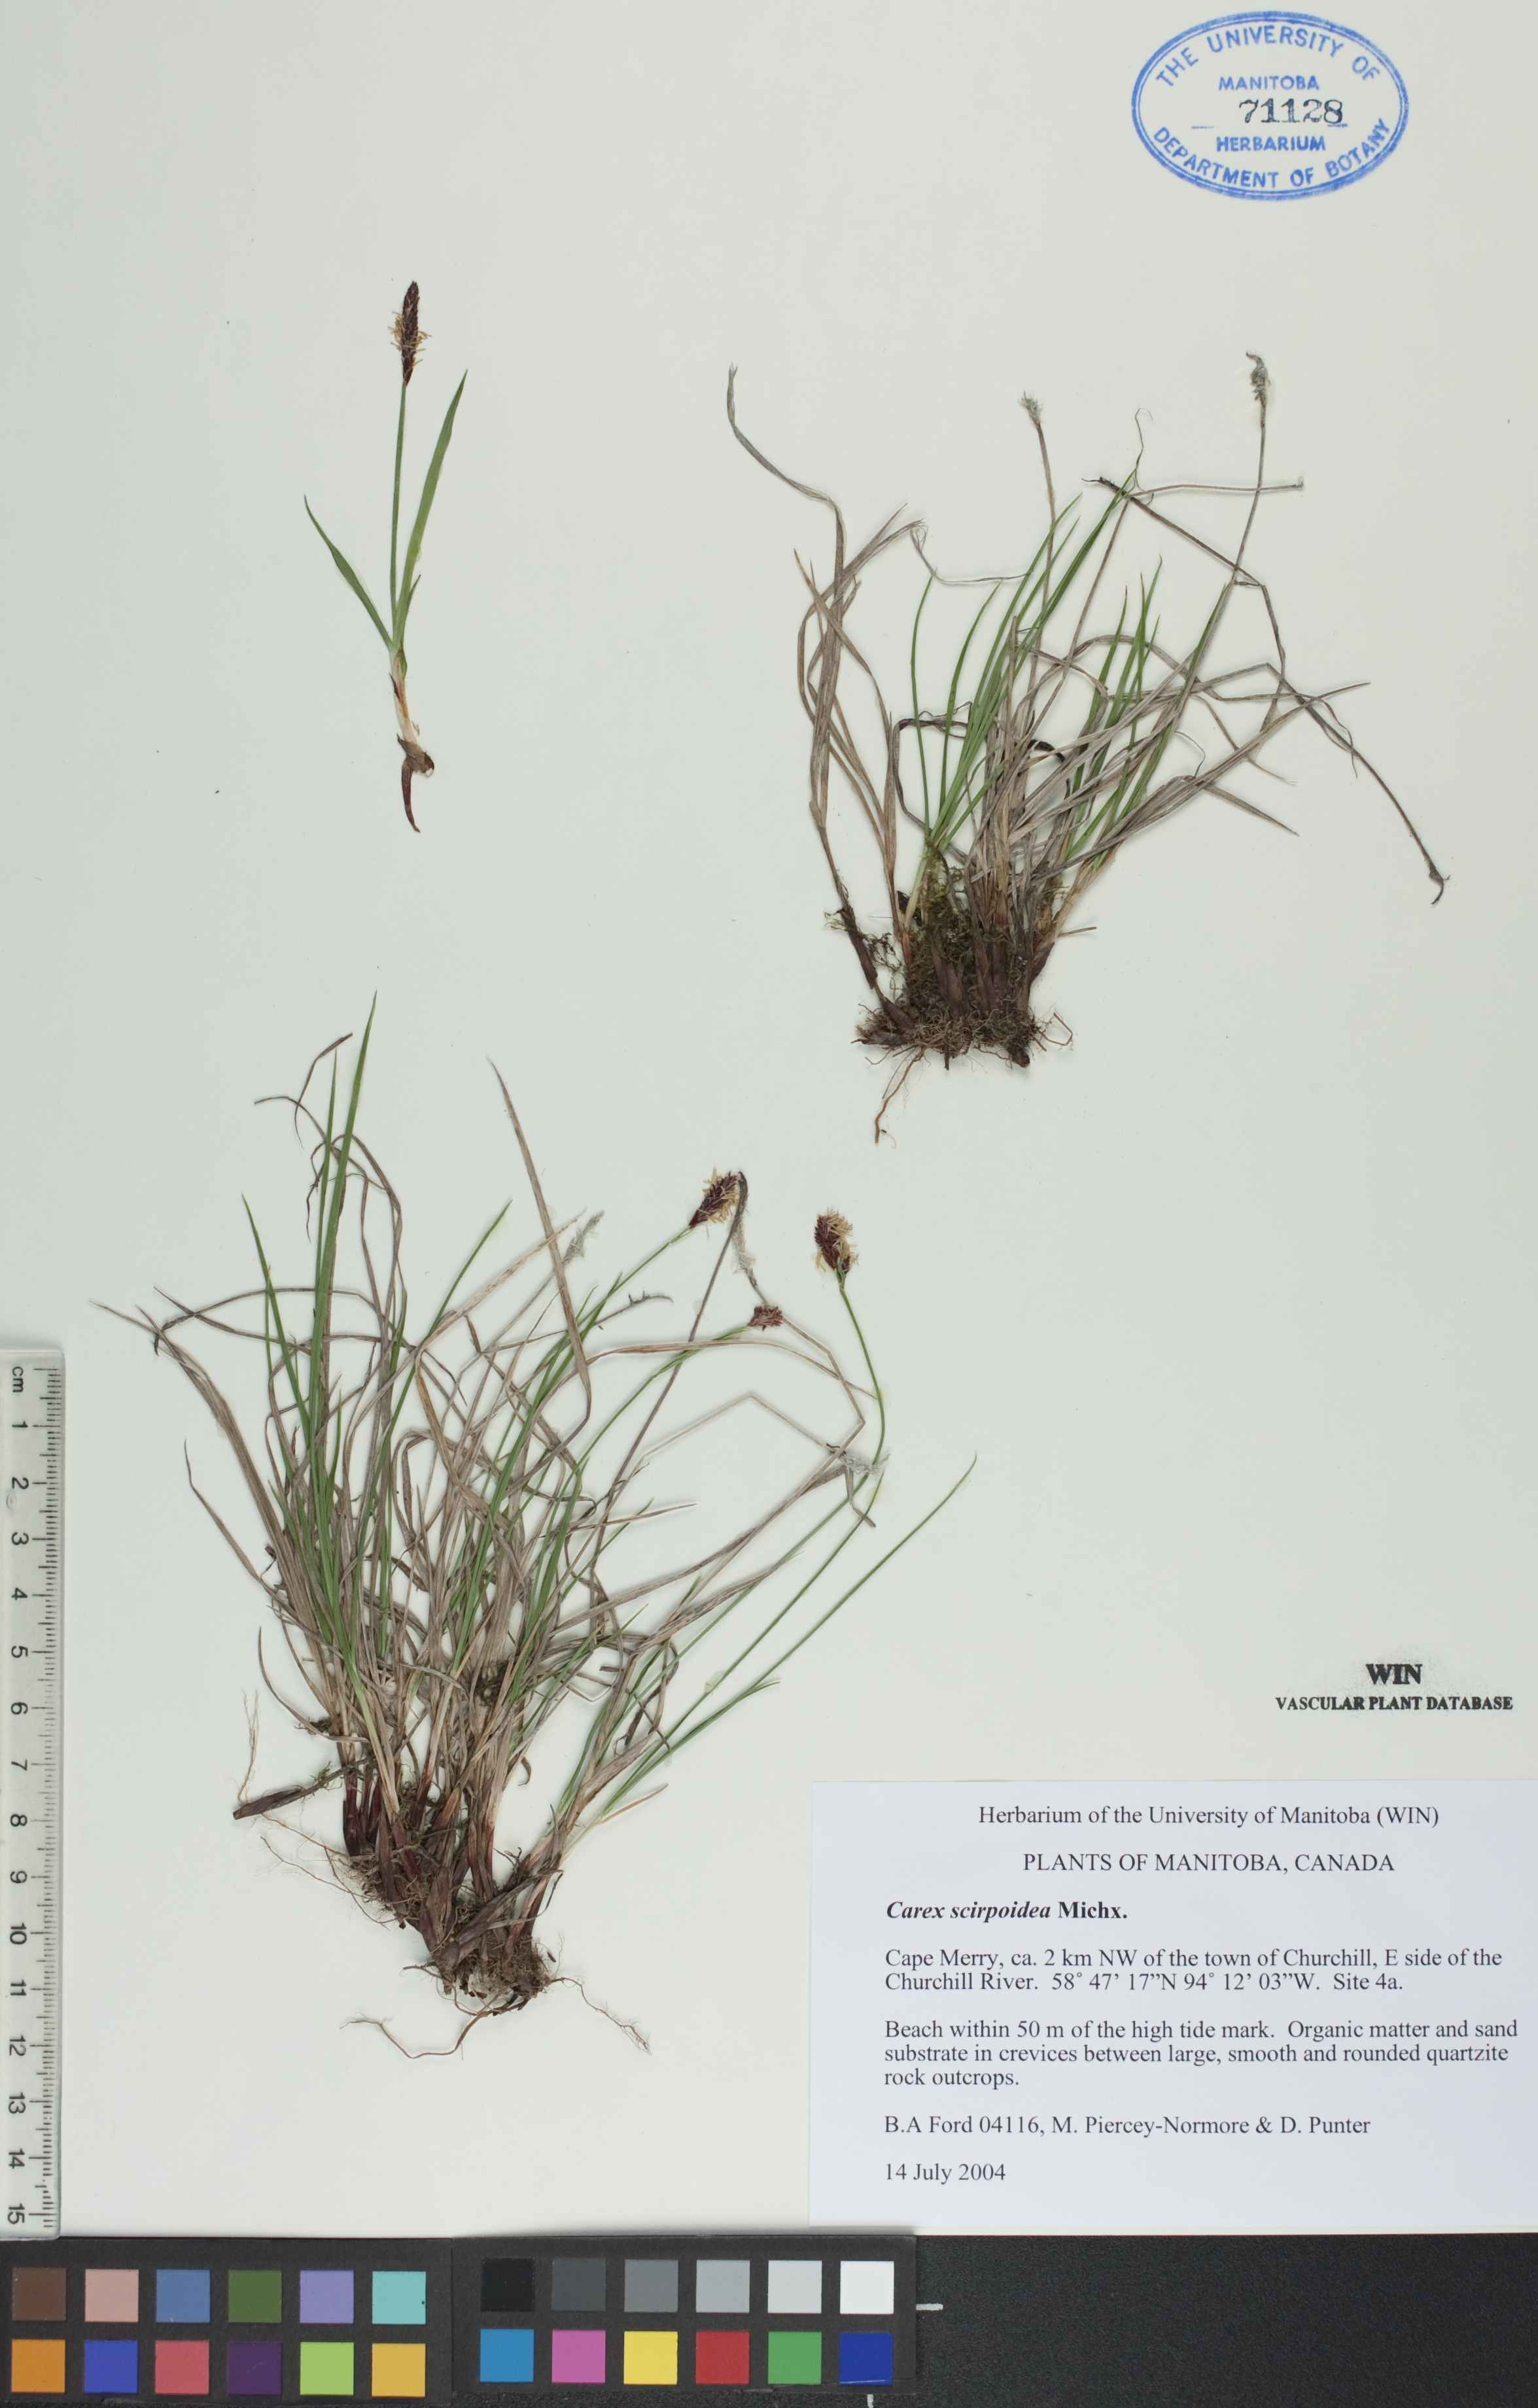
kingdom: Plantae
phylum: Tracheophyta
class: Liliopsida
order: Poales
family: Cyperaceae
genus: Carex
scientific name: Carex scirpoidea
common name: Canada single-spike sedge
